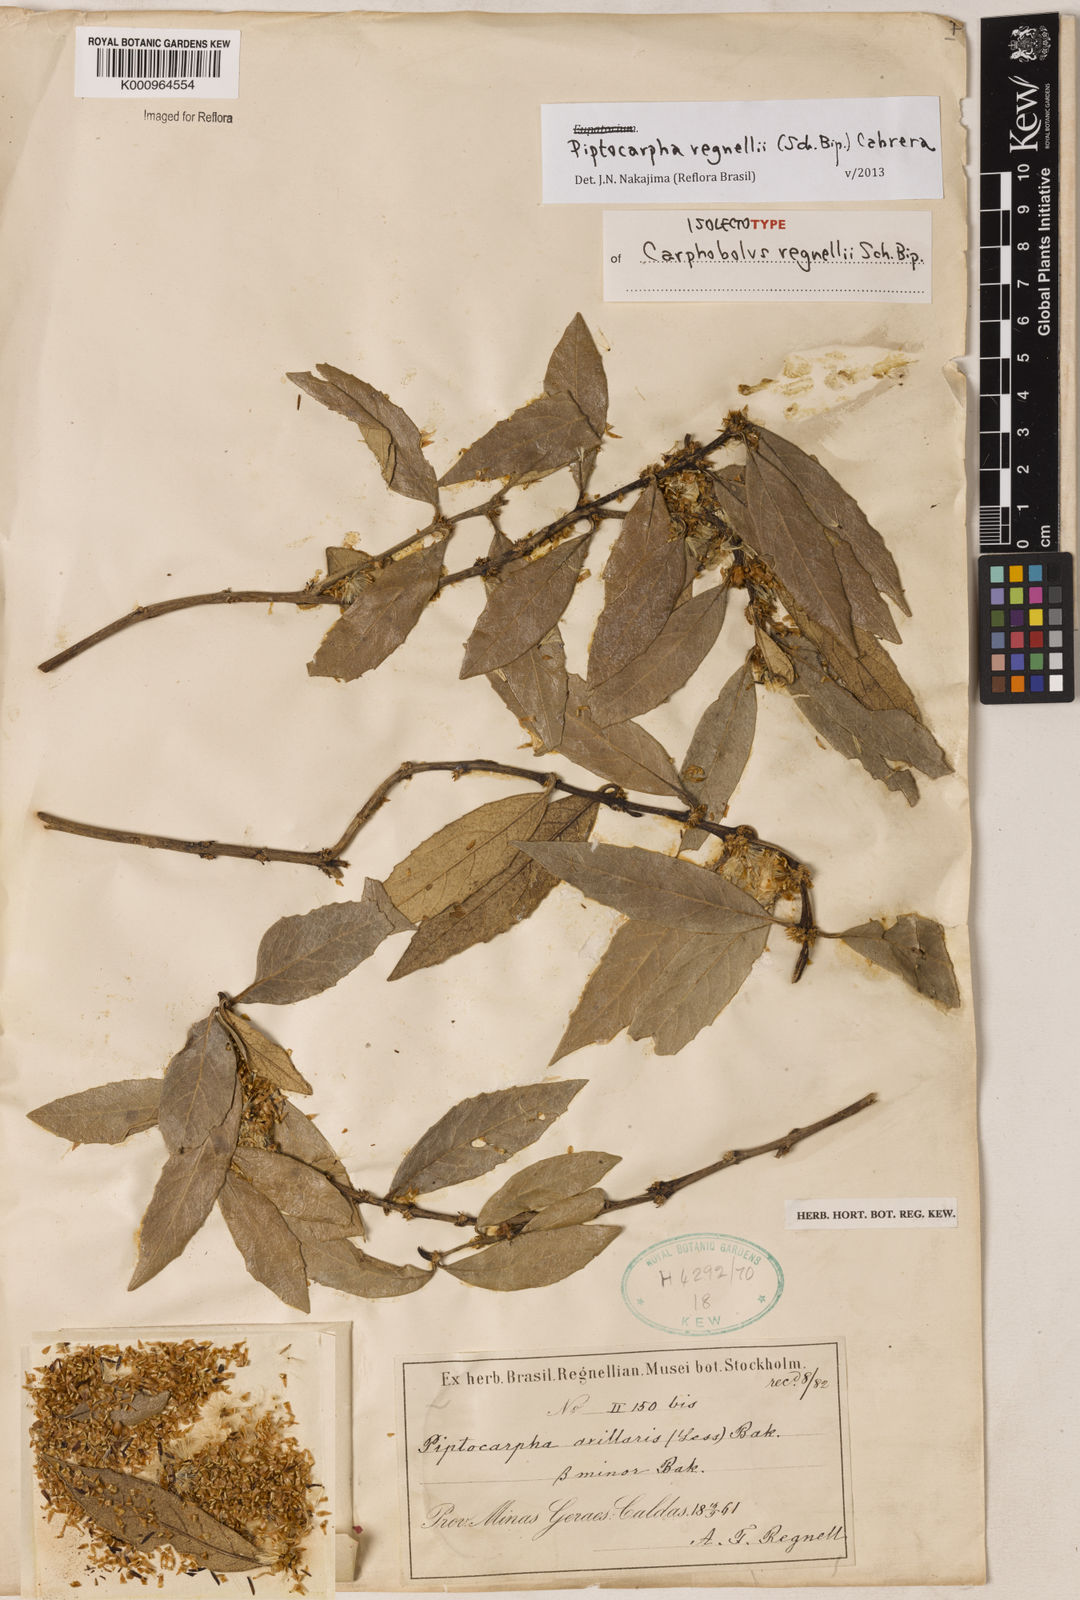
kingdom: Plantae
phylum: Tracheophyta
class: Magnoliopsida
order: Asterales
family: Asteraceae
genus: Piptocarpha
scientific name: Piptocarpha regnellii
